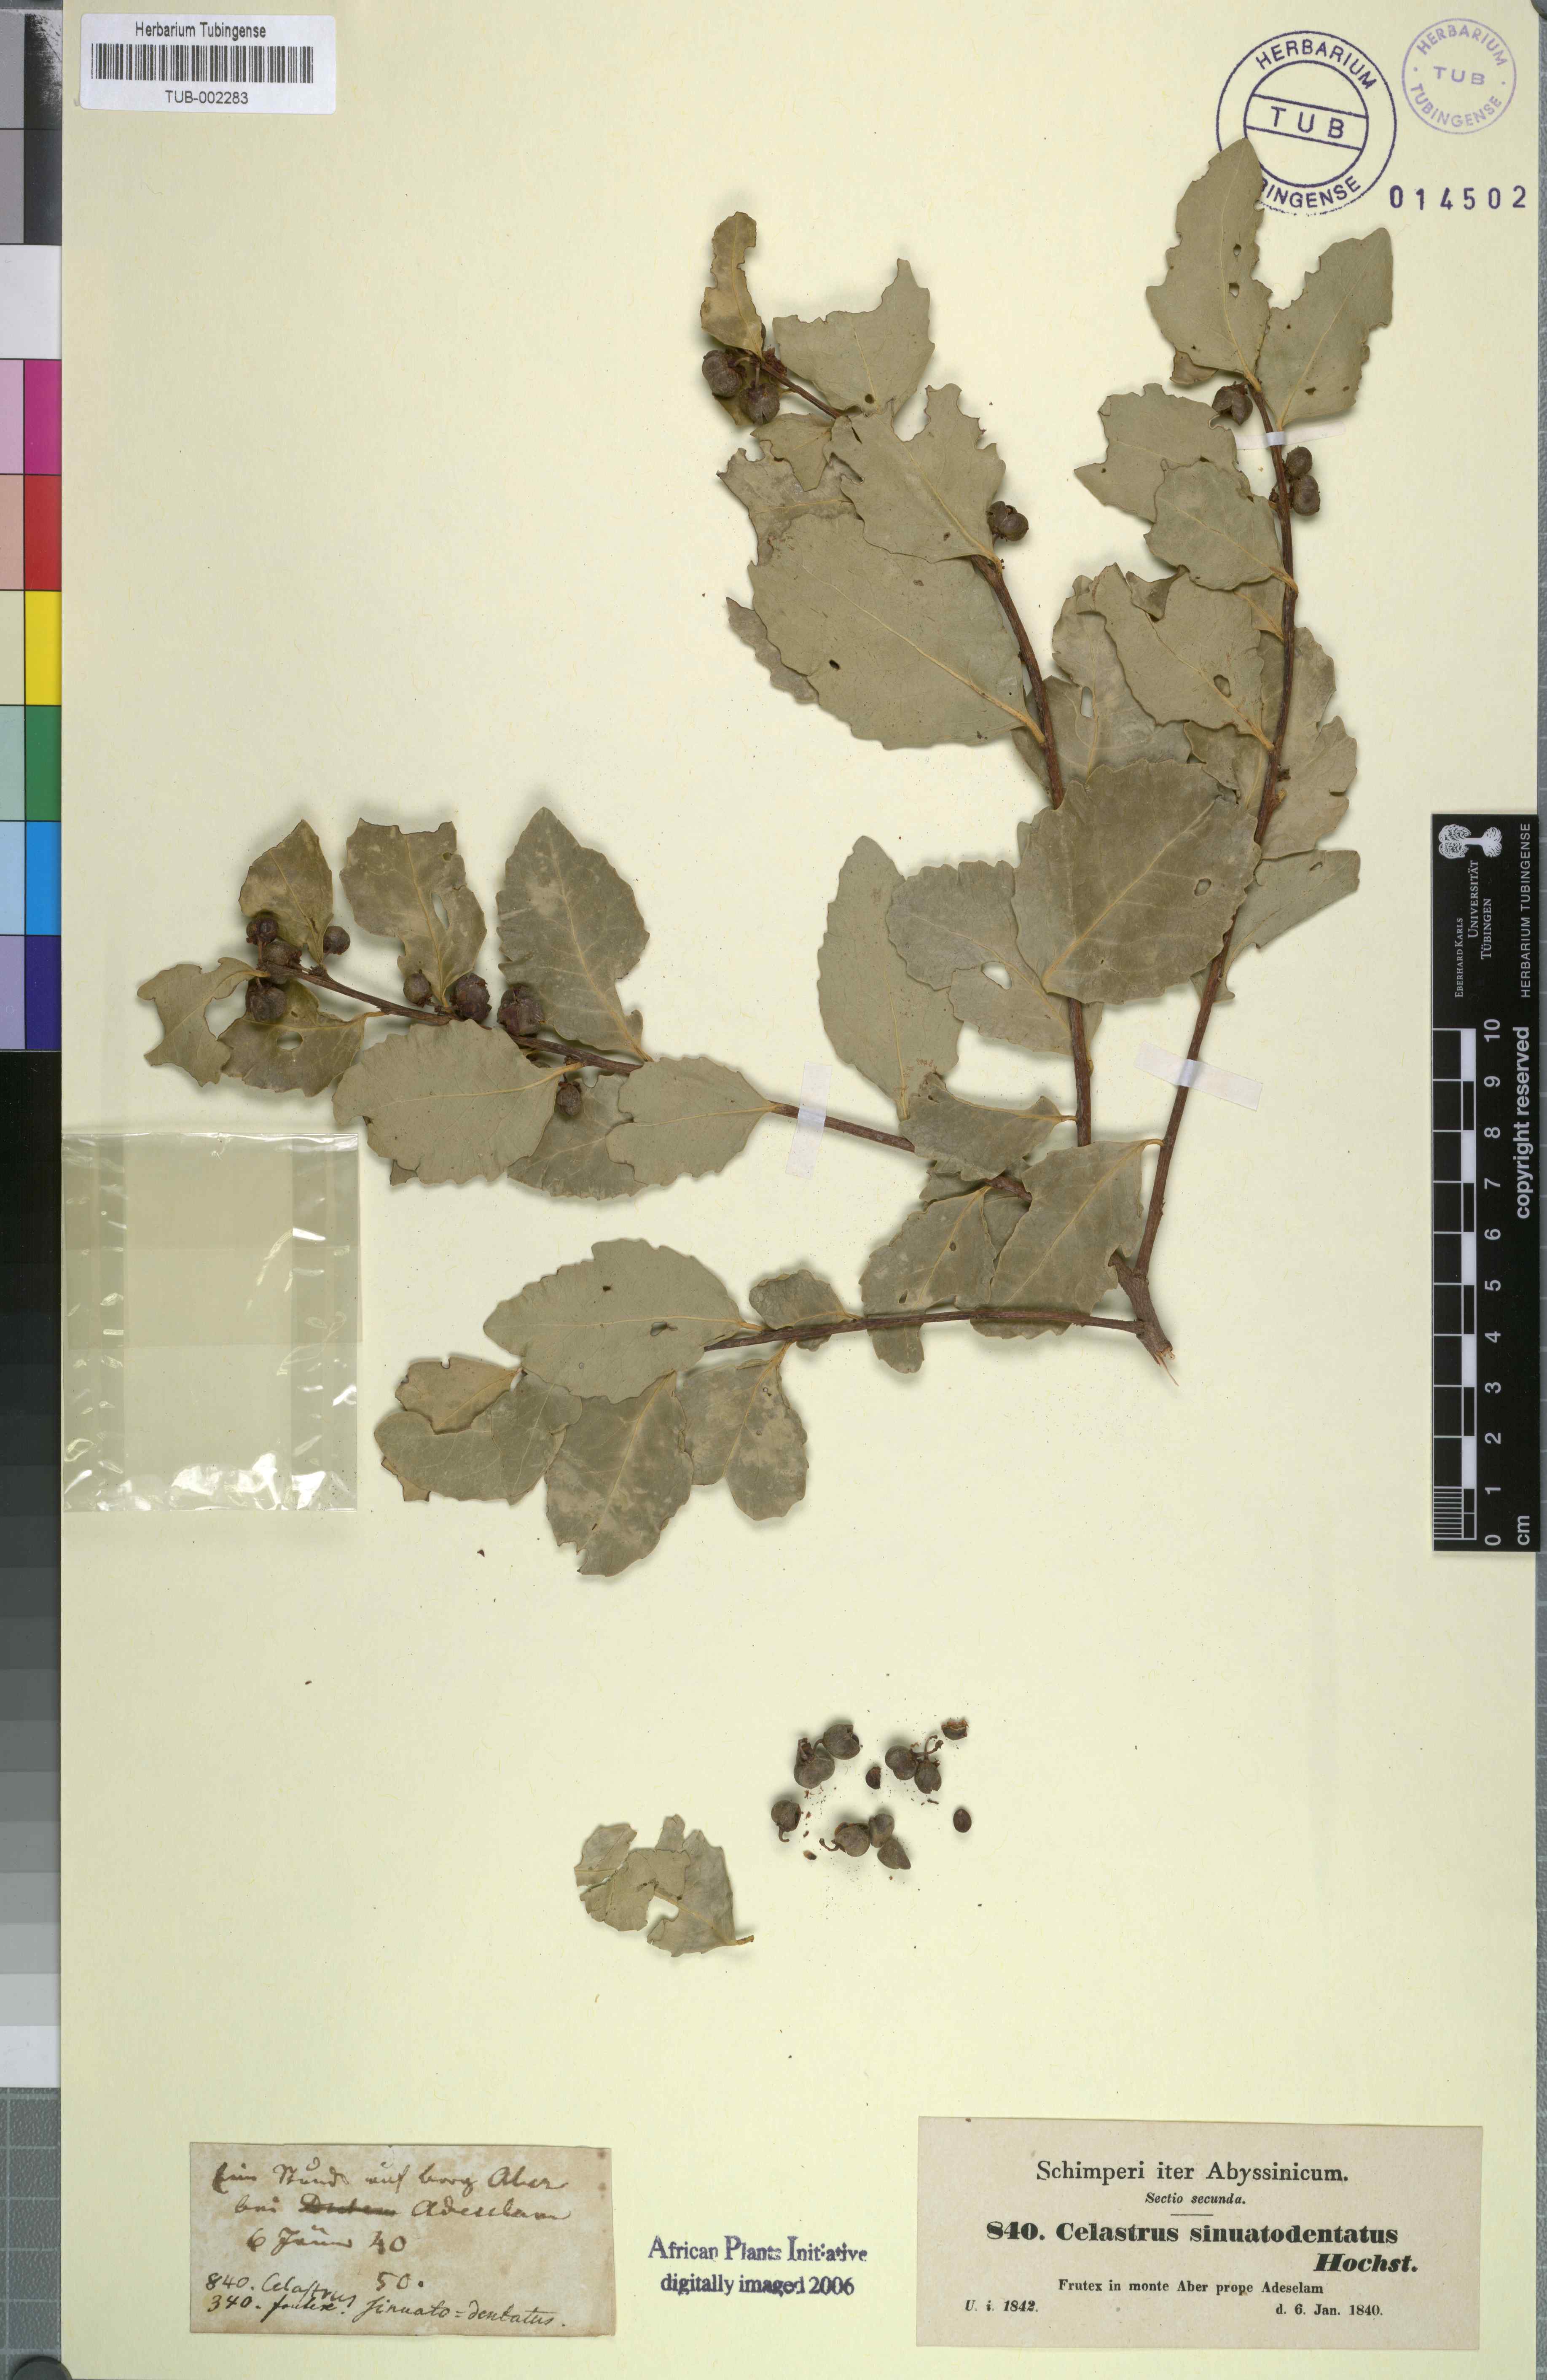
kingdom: Plantae
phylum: Tracheophyta
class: Magnoliopsida
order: Celastrales
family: Celastraceae
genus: Gymnosporia
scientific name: Gymnosporia undata
